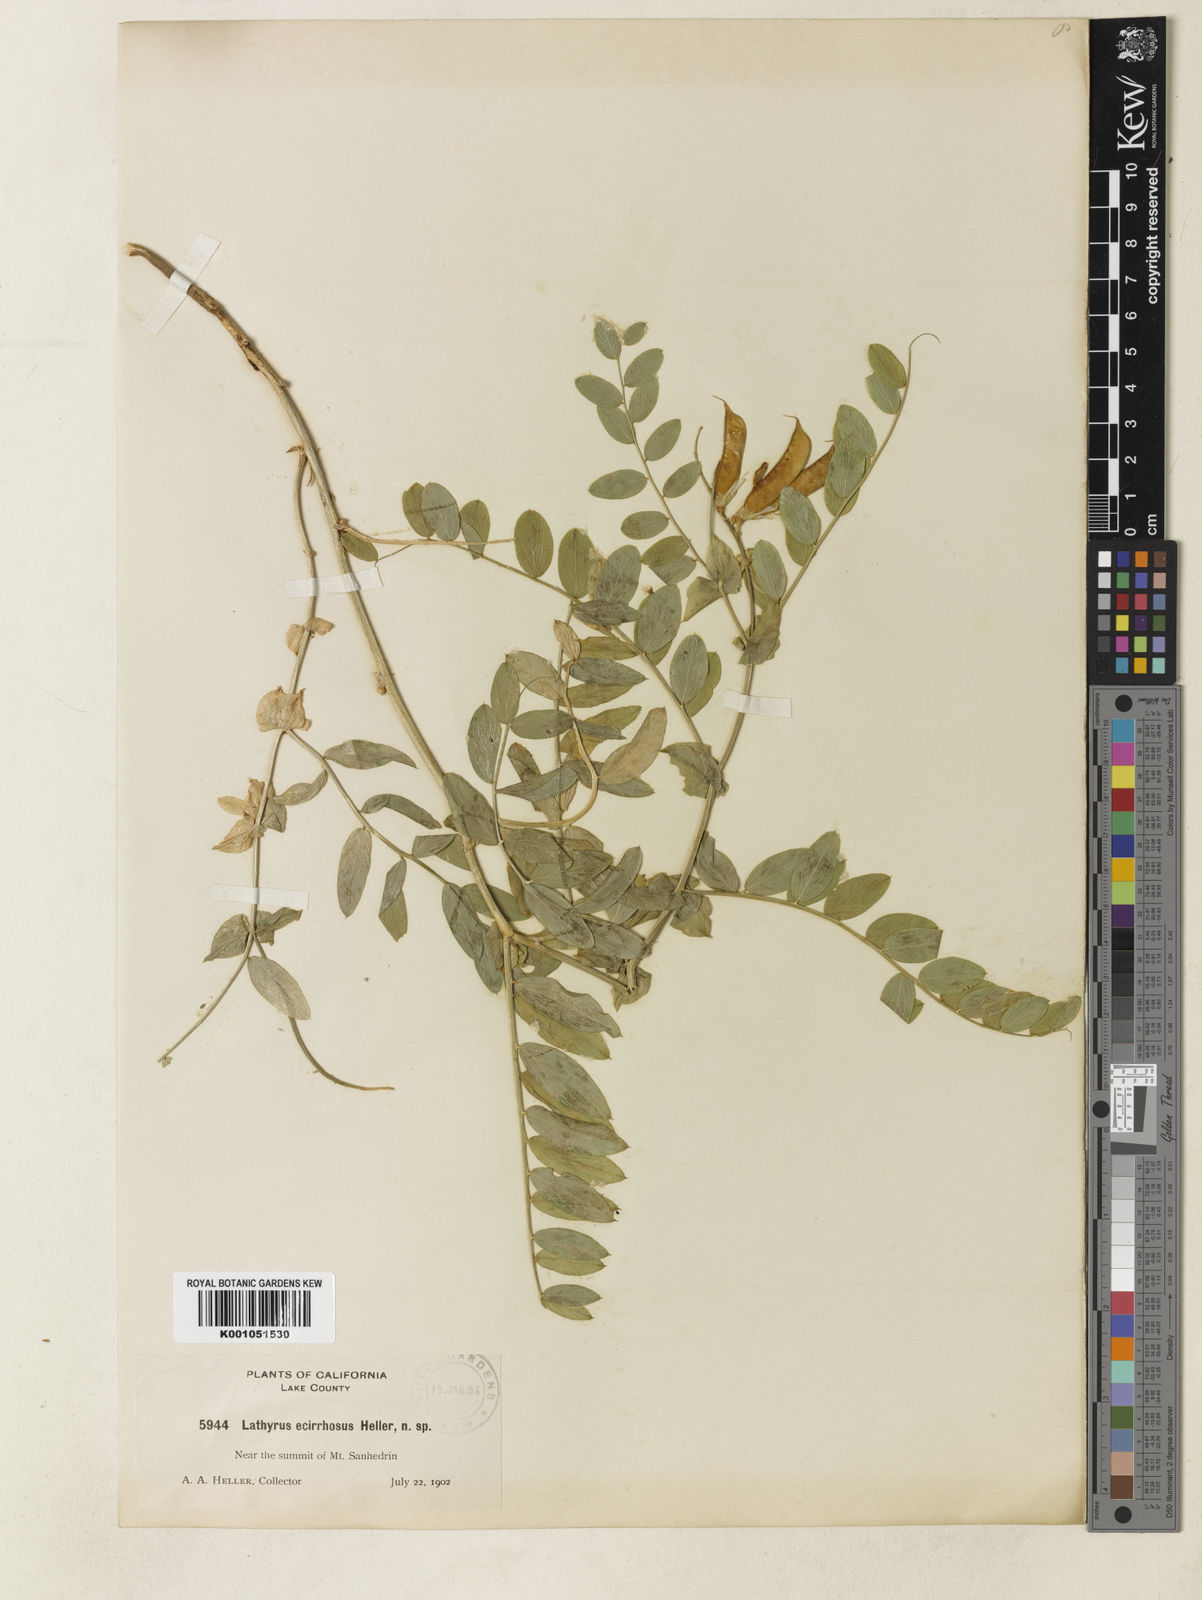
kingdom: Plantae
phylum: Tracheophyta
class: Magnoliopsida
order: Fabales
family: Fabaceae
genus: Lathyrus
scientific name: Lathyrus polyphyllus
